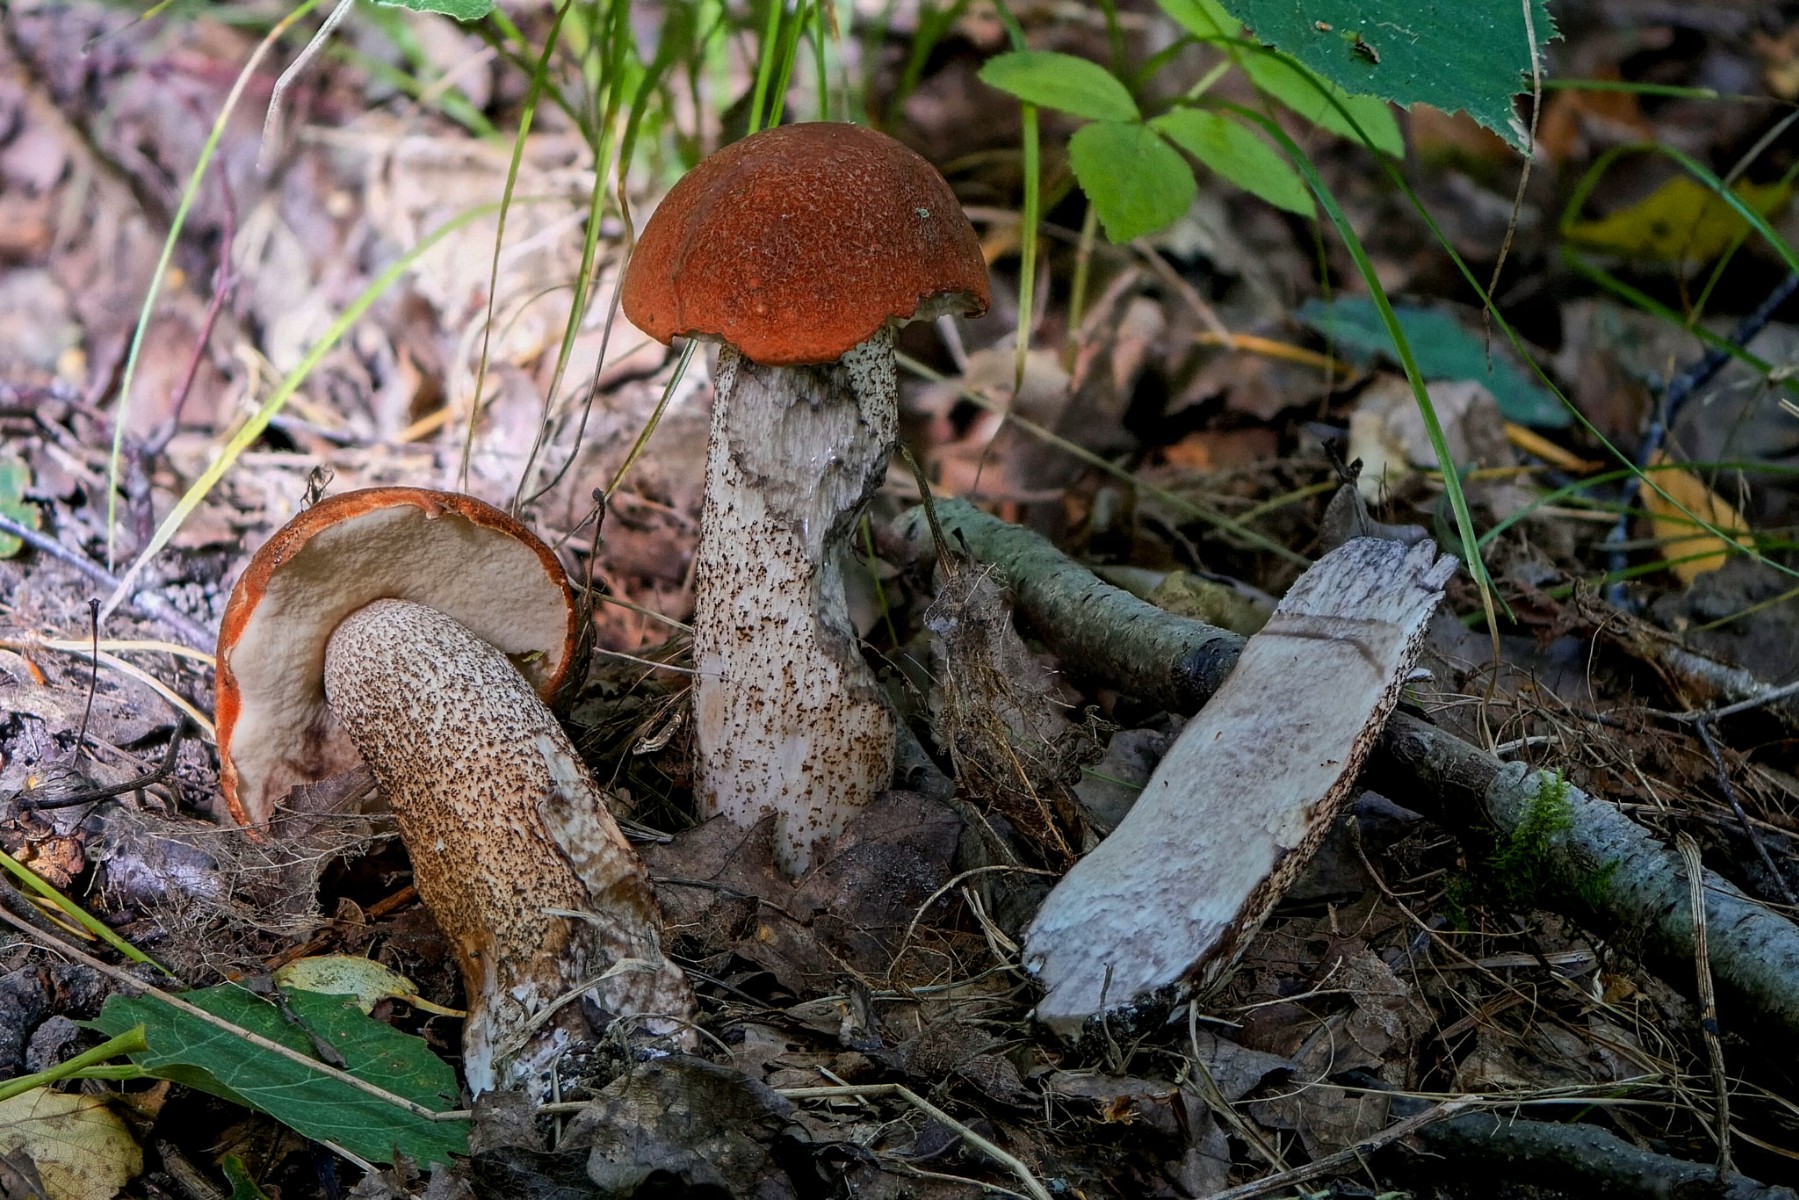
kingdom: Fungi
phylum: Basidiomycota
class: Agaricomycetes
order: Boletales
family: Boletaceae
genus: Leccinum
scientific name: Leccinum aurantiacum
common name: rustrød skælrørhat
